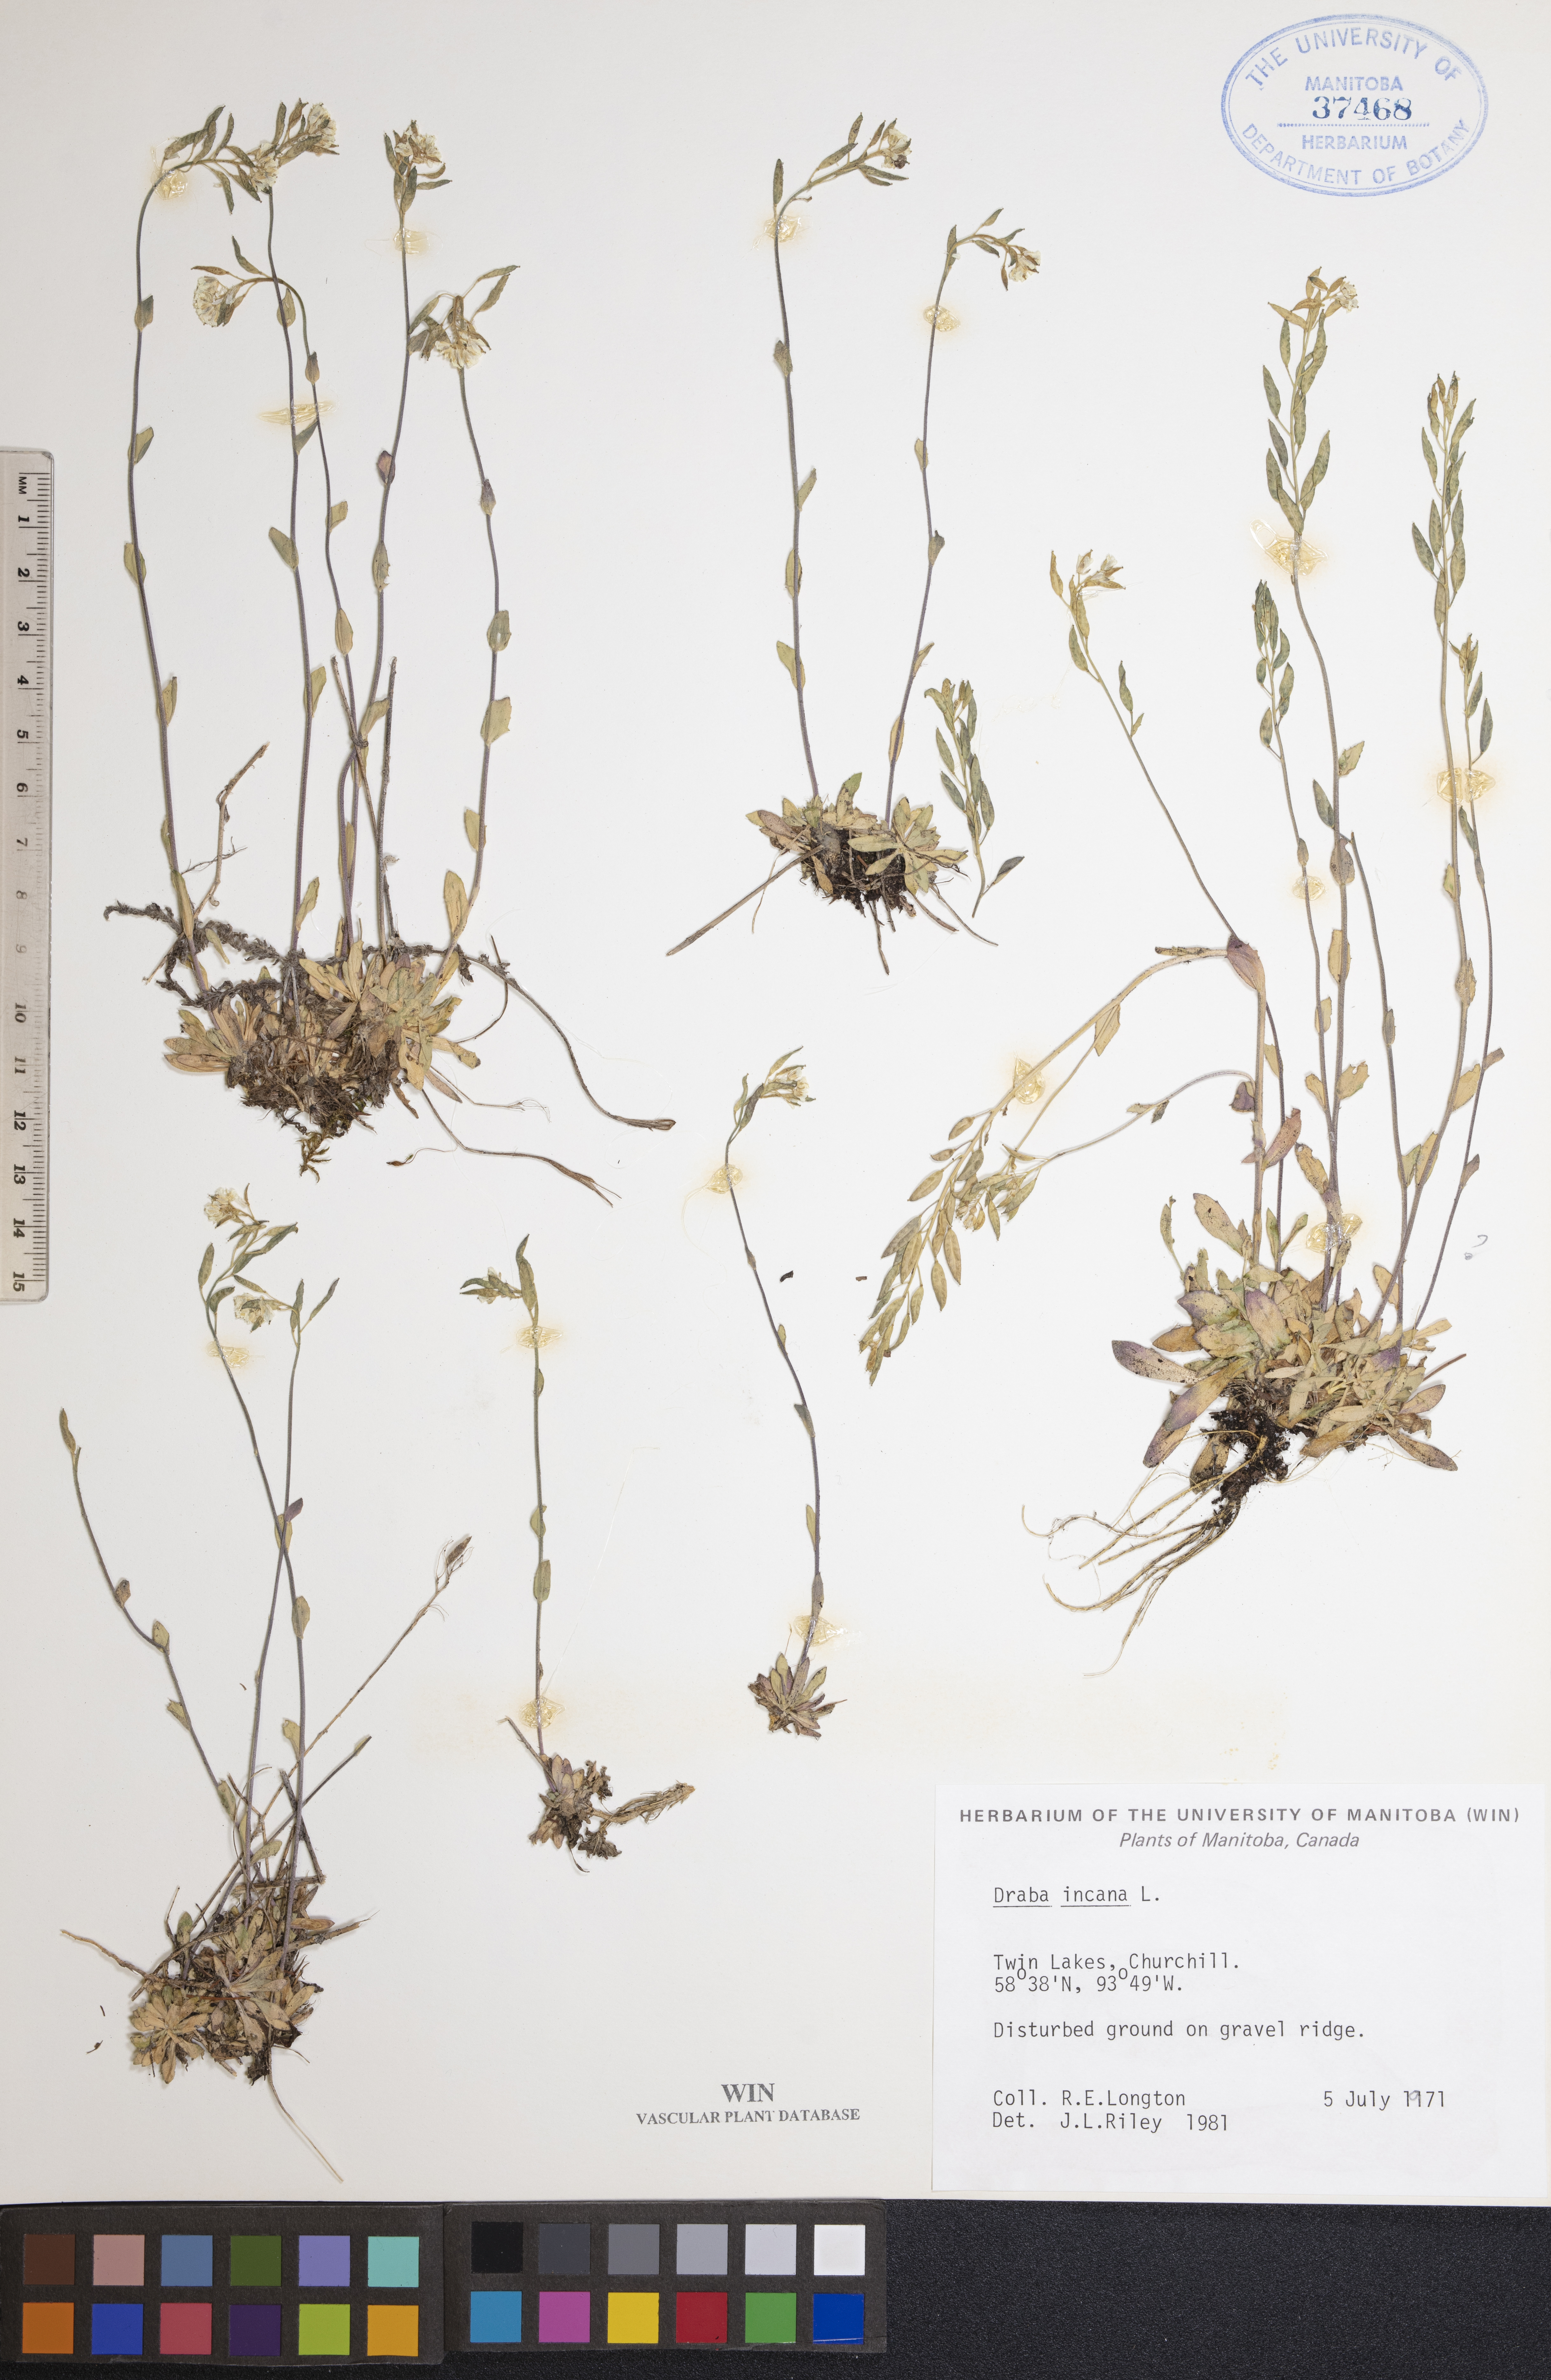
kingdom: Plantae
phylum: Tracheophyta
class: Magnoliopsida
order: Brassicales
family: Brassicaceae
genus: Draba
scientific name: Draba incana
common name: Hoary whitlow-grass
